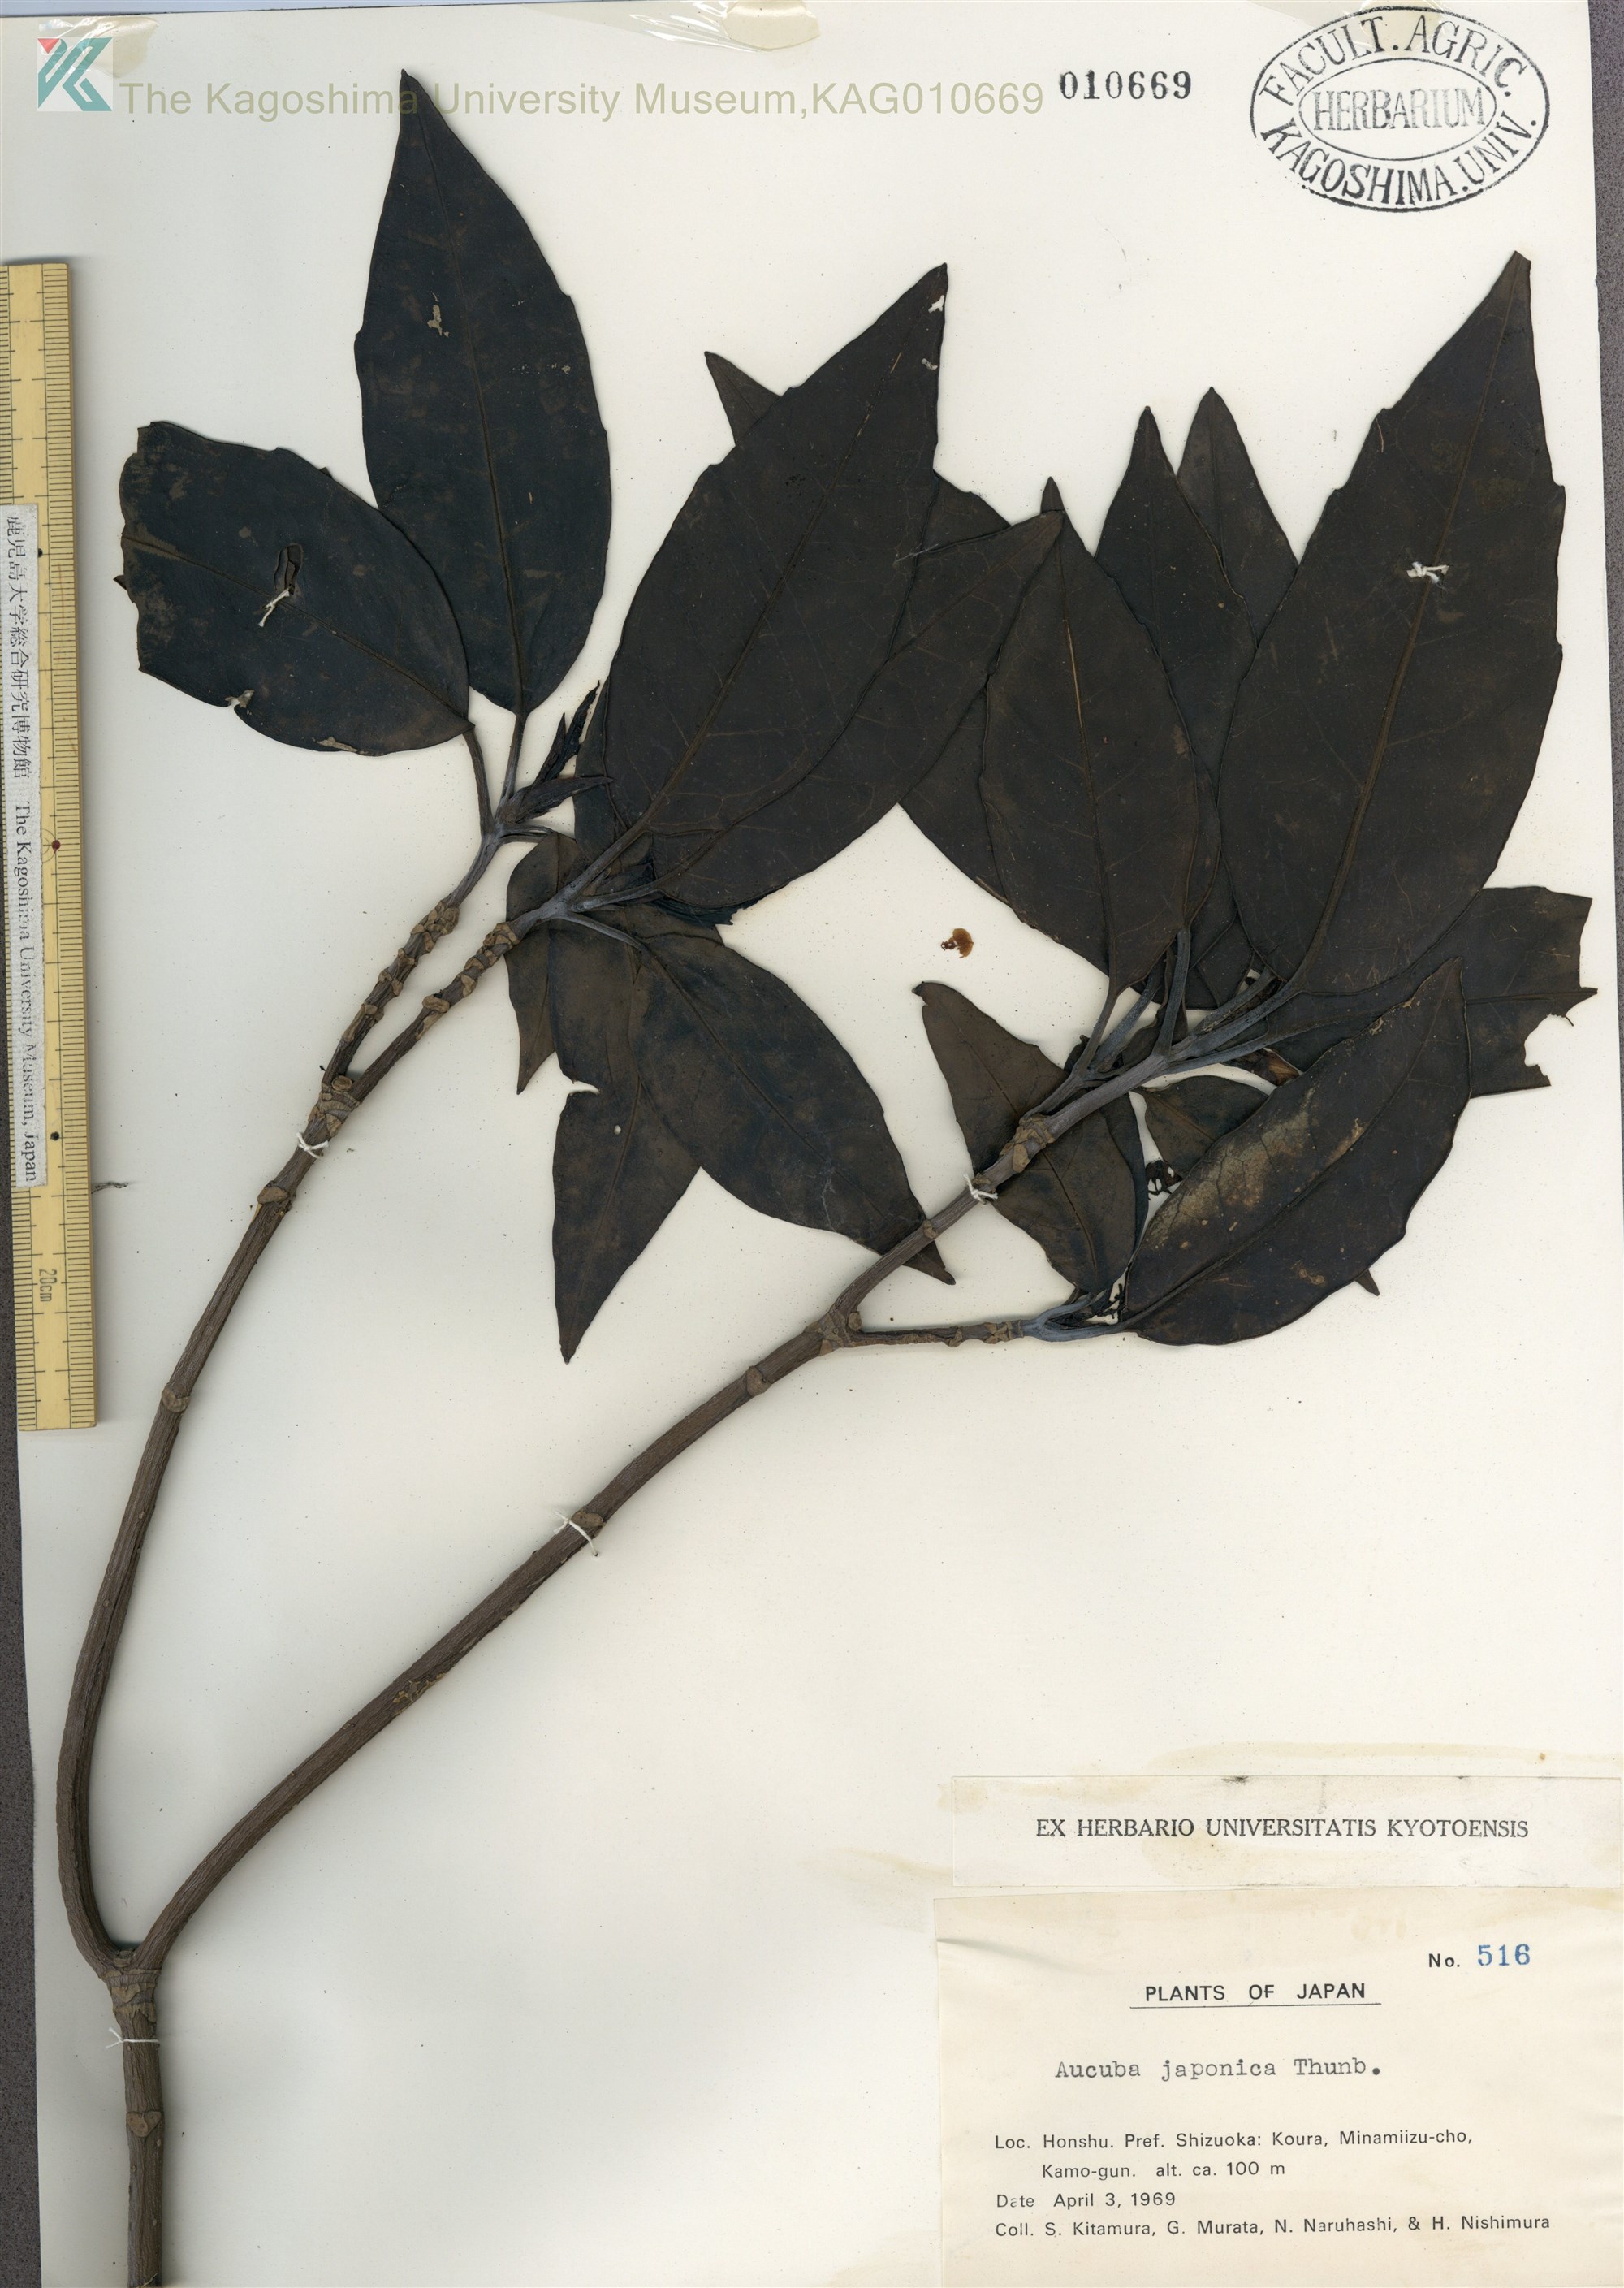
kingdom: Plantae
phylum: Tracheophyta
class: Magnoliopsida
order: Garryales
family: Garryaceae
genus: Aucuba
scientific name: Aucuba japonica
